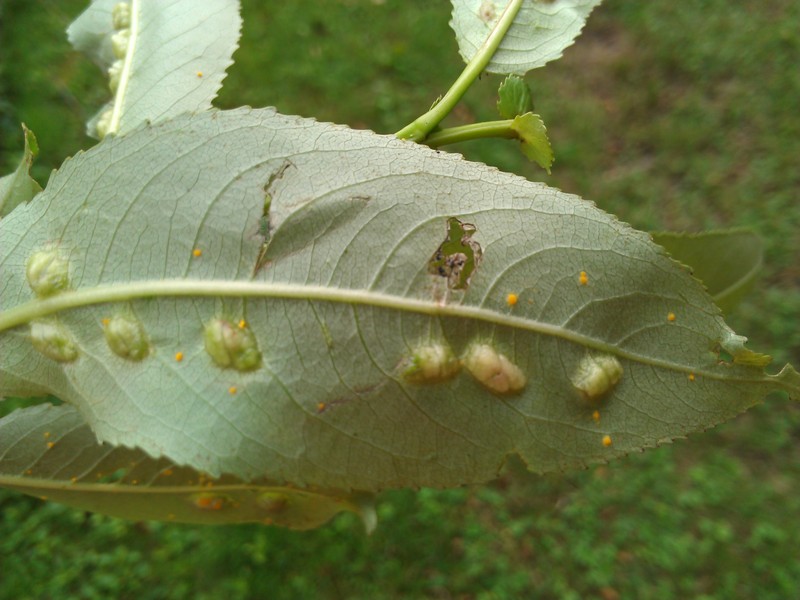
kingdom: Fungi
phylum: Basidiomycota
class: Pucciniomycetes
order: Pucciniales
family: Melampsoraceae
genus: Melampsora
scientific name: Melampsora
